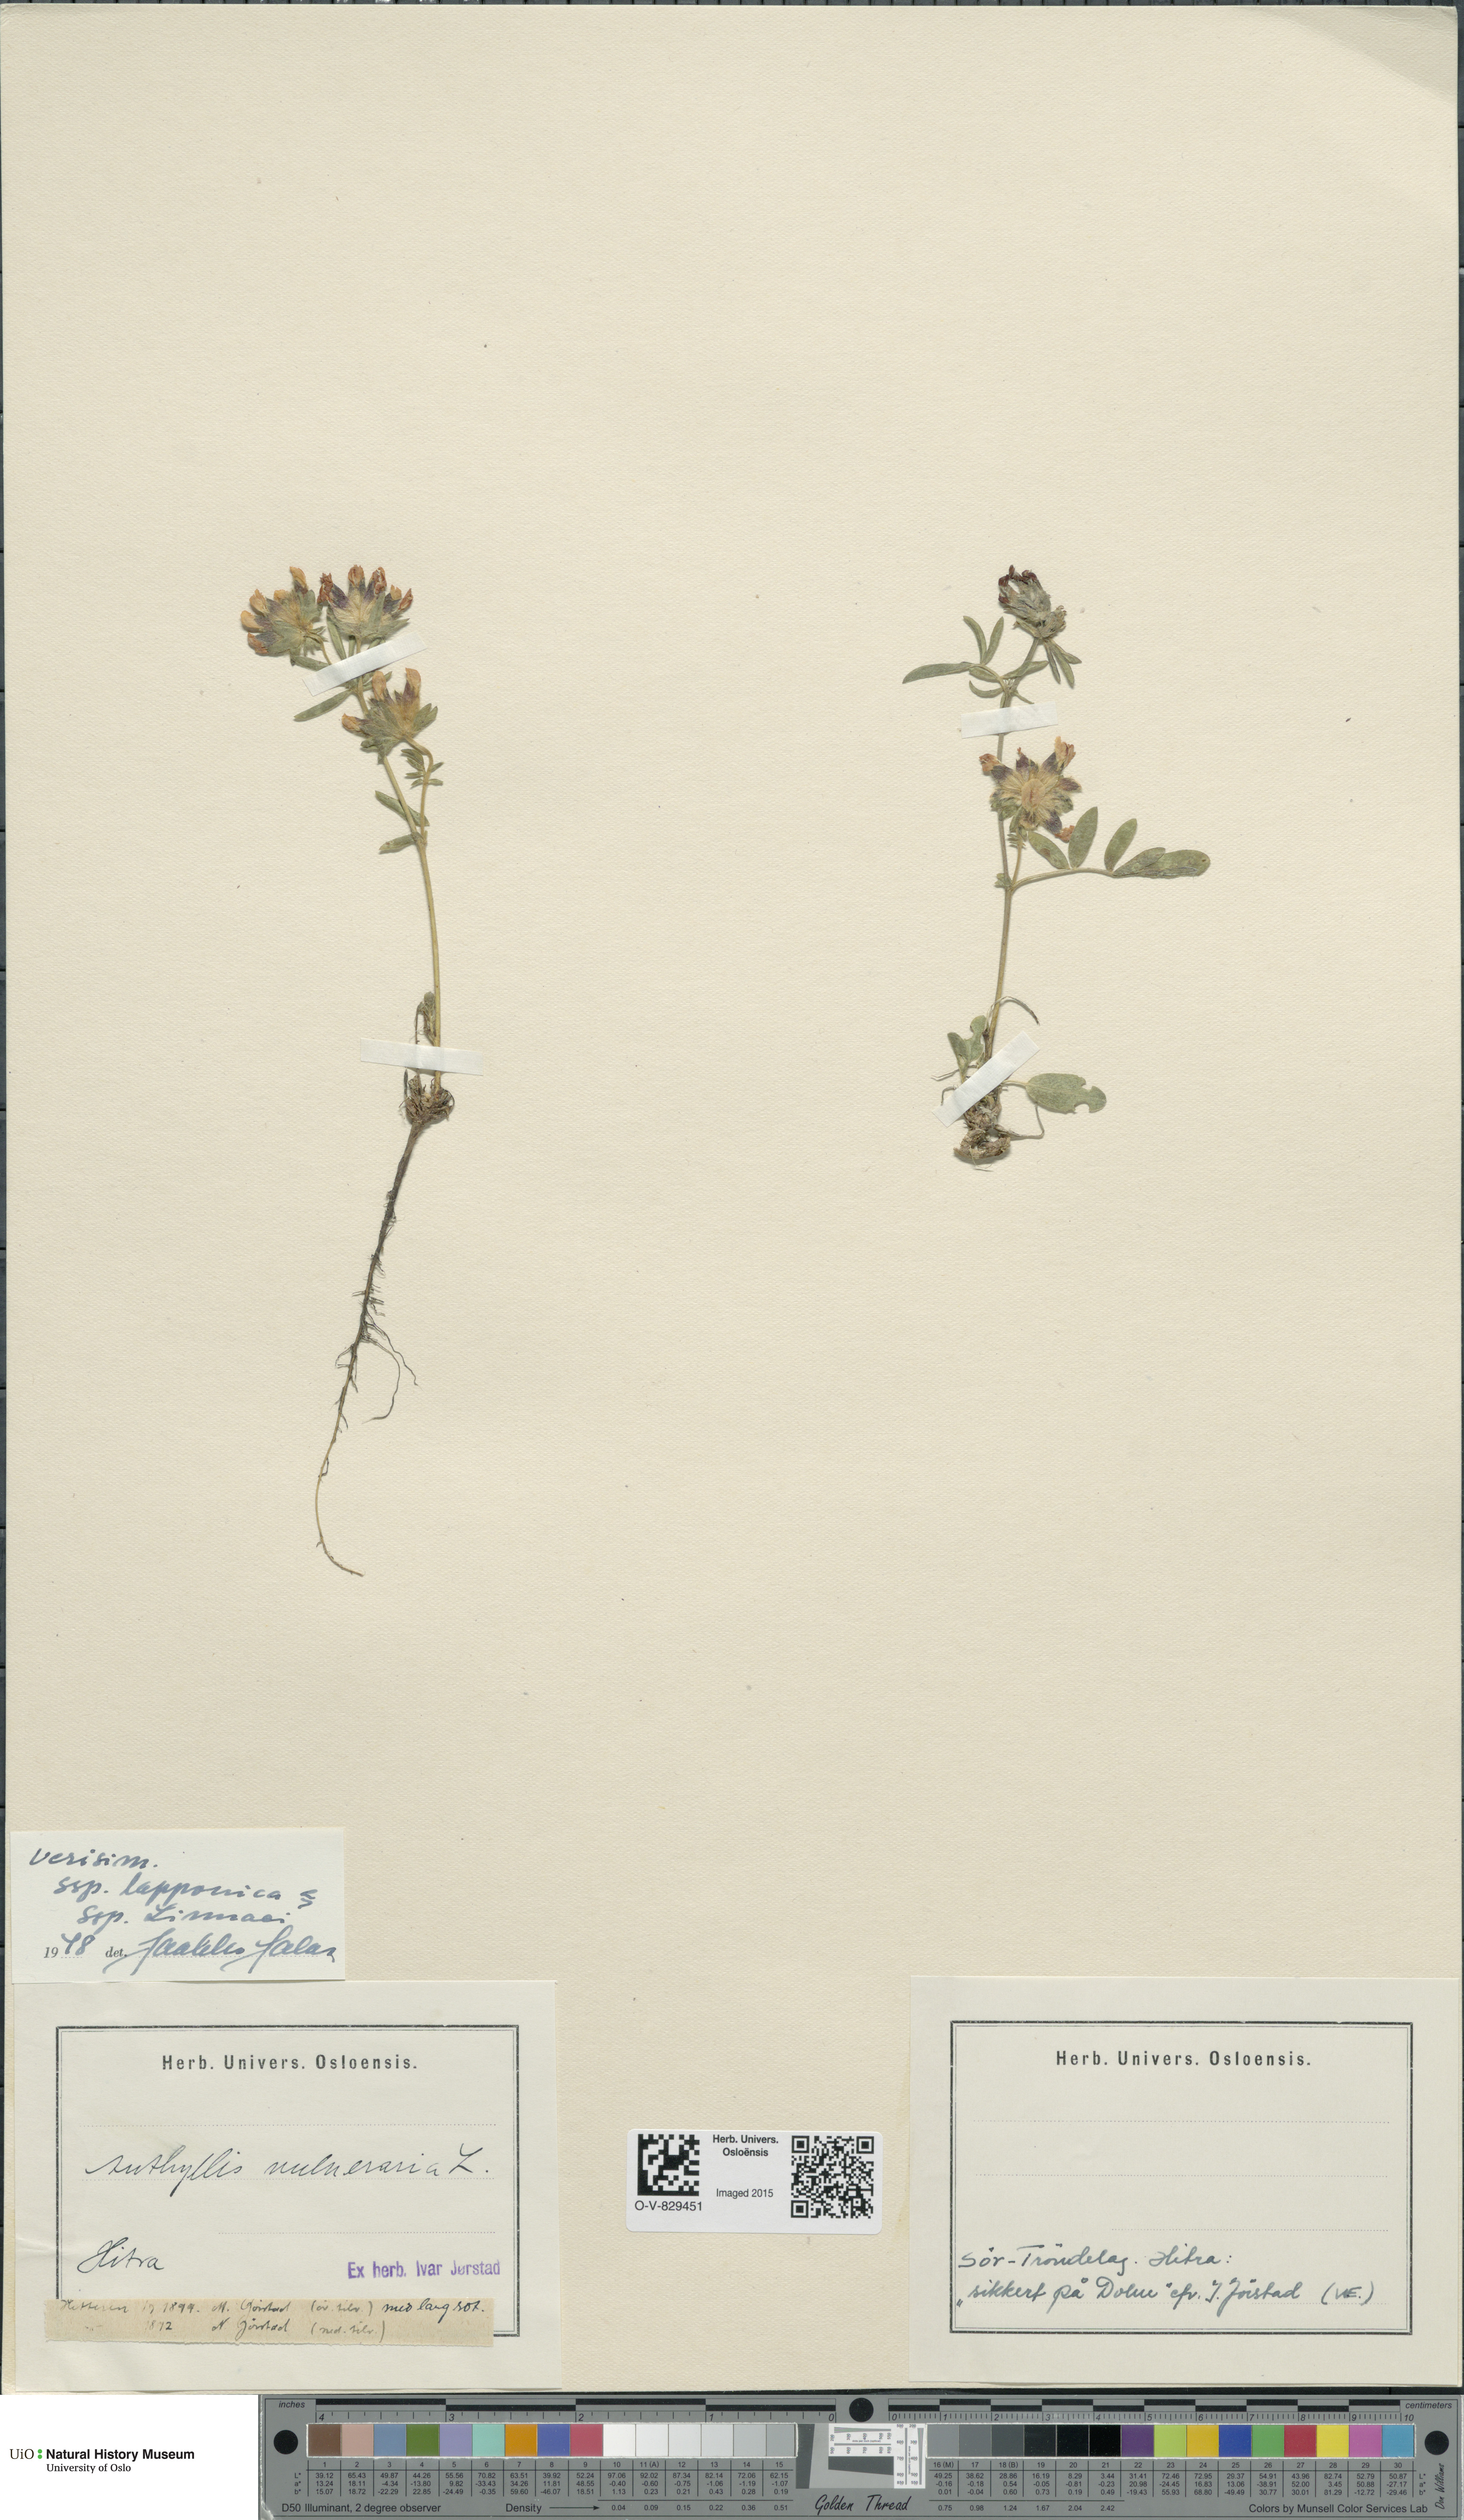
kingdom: Plantae
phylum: Tracheophyta
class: Magnoliopsida
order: Fabales
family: Fabaceae
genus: Anthyllis
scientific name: Anthyllis vulneraria
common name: Kidney vetch
